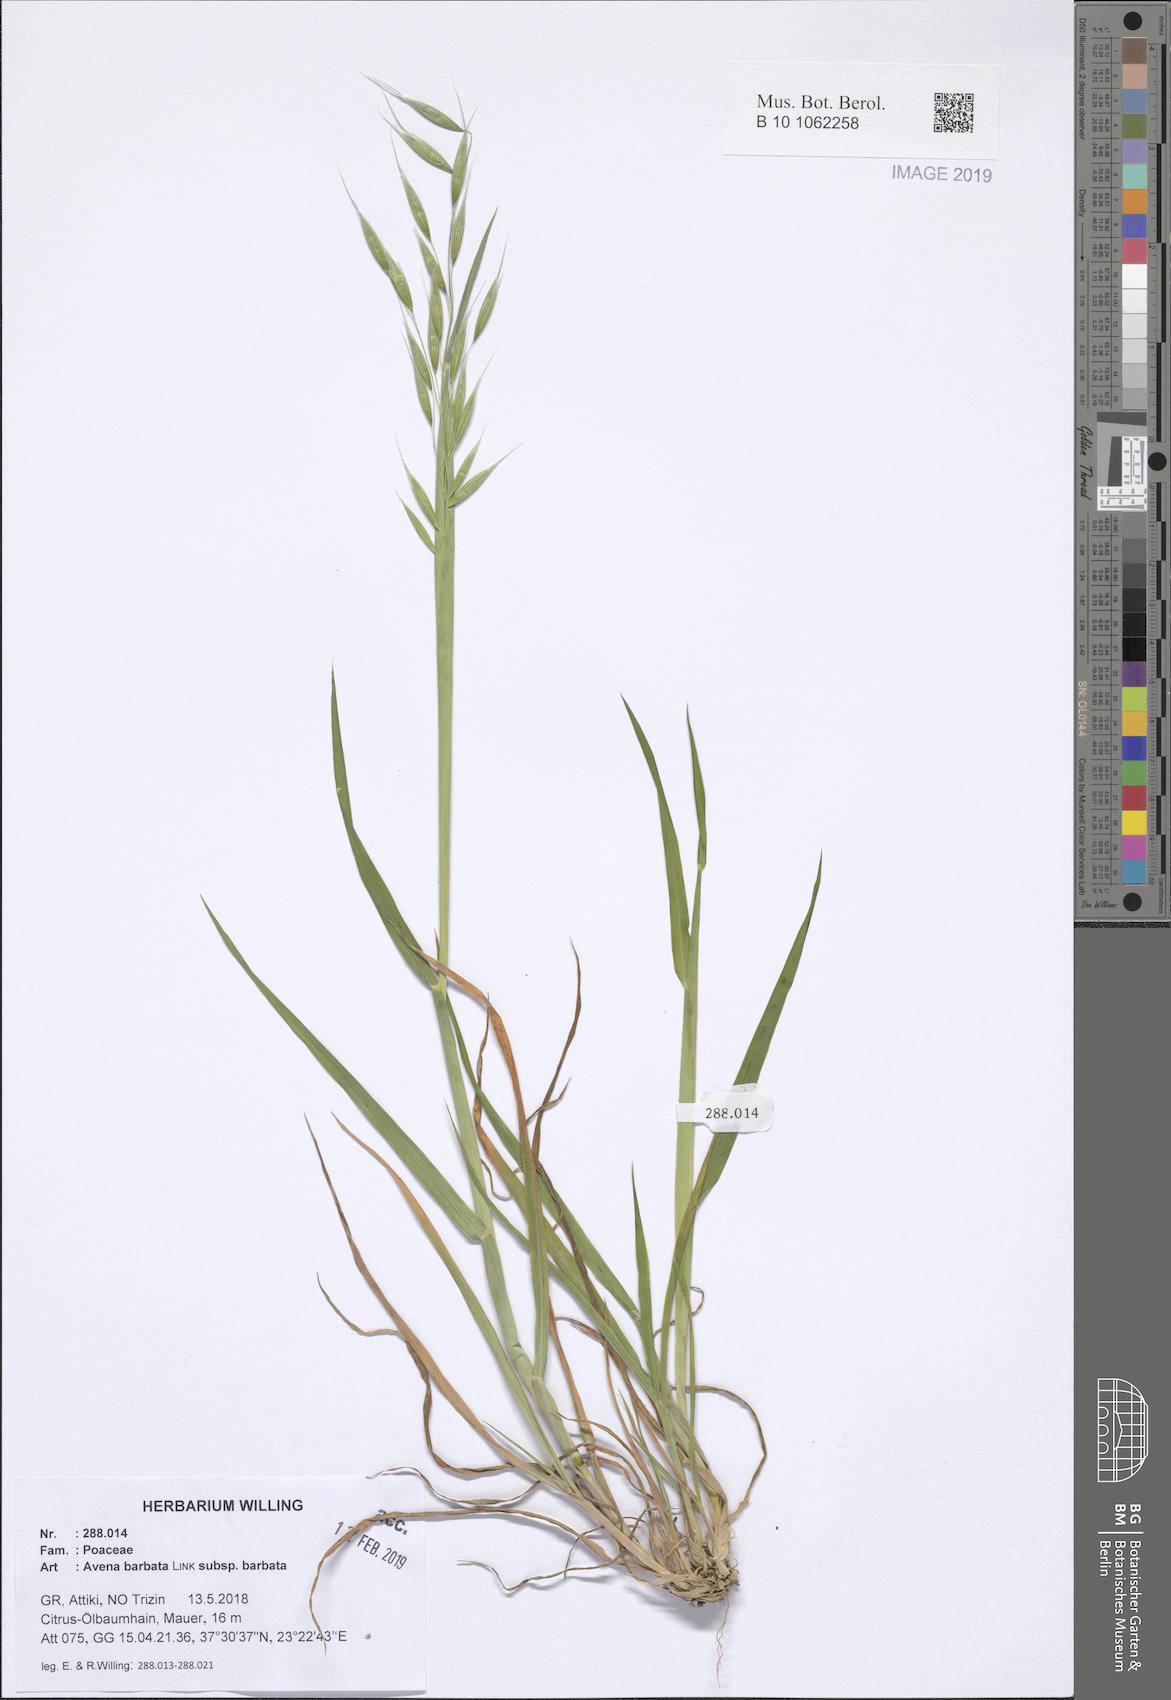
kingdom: Plantae
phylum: Tracheophyta
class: Liliopsida
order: Poales
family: Poaceae
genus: Avena
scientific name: Avena barbata
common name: Slender oat
